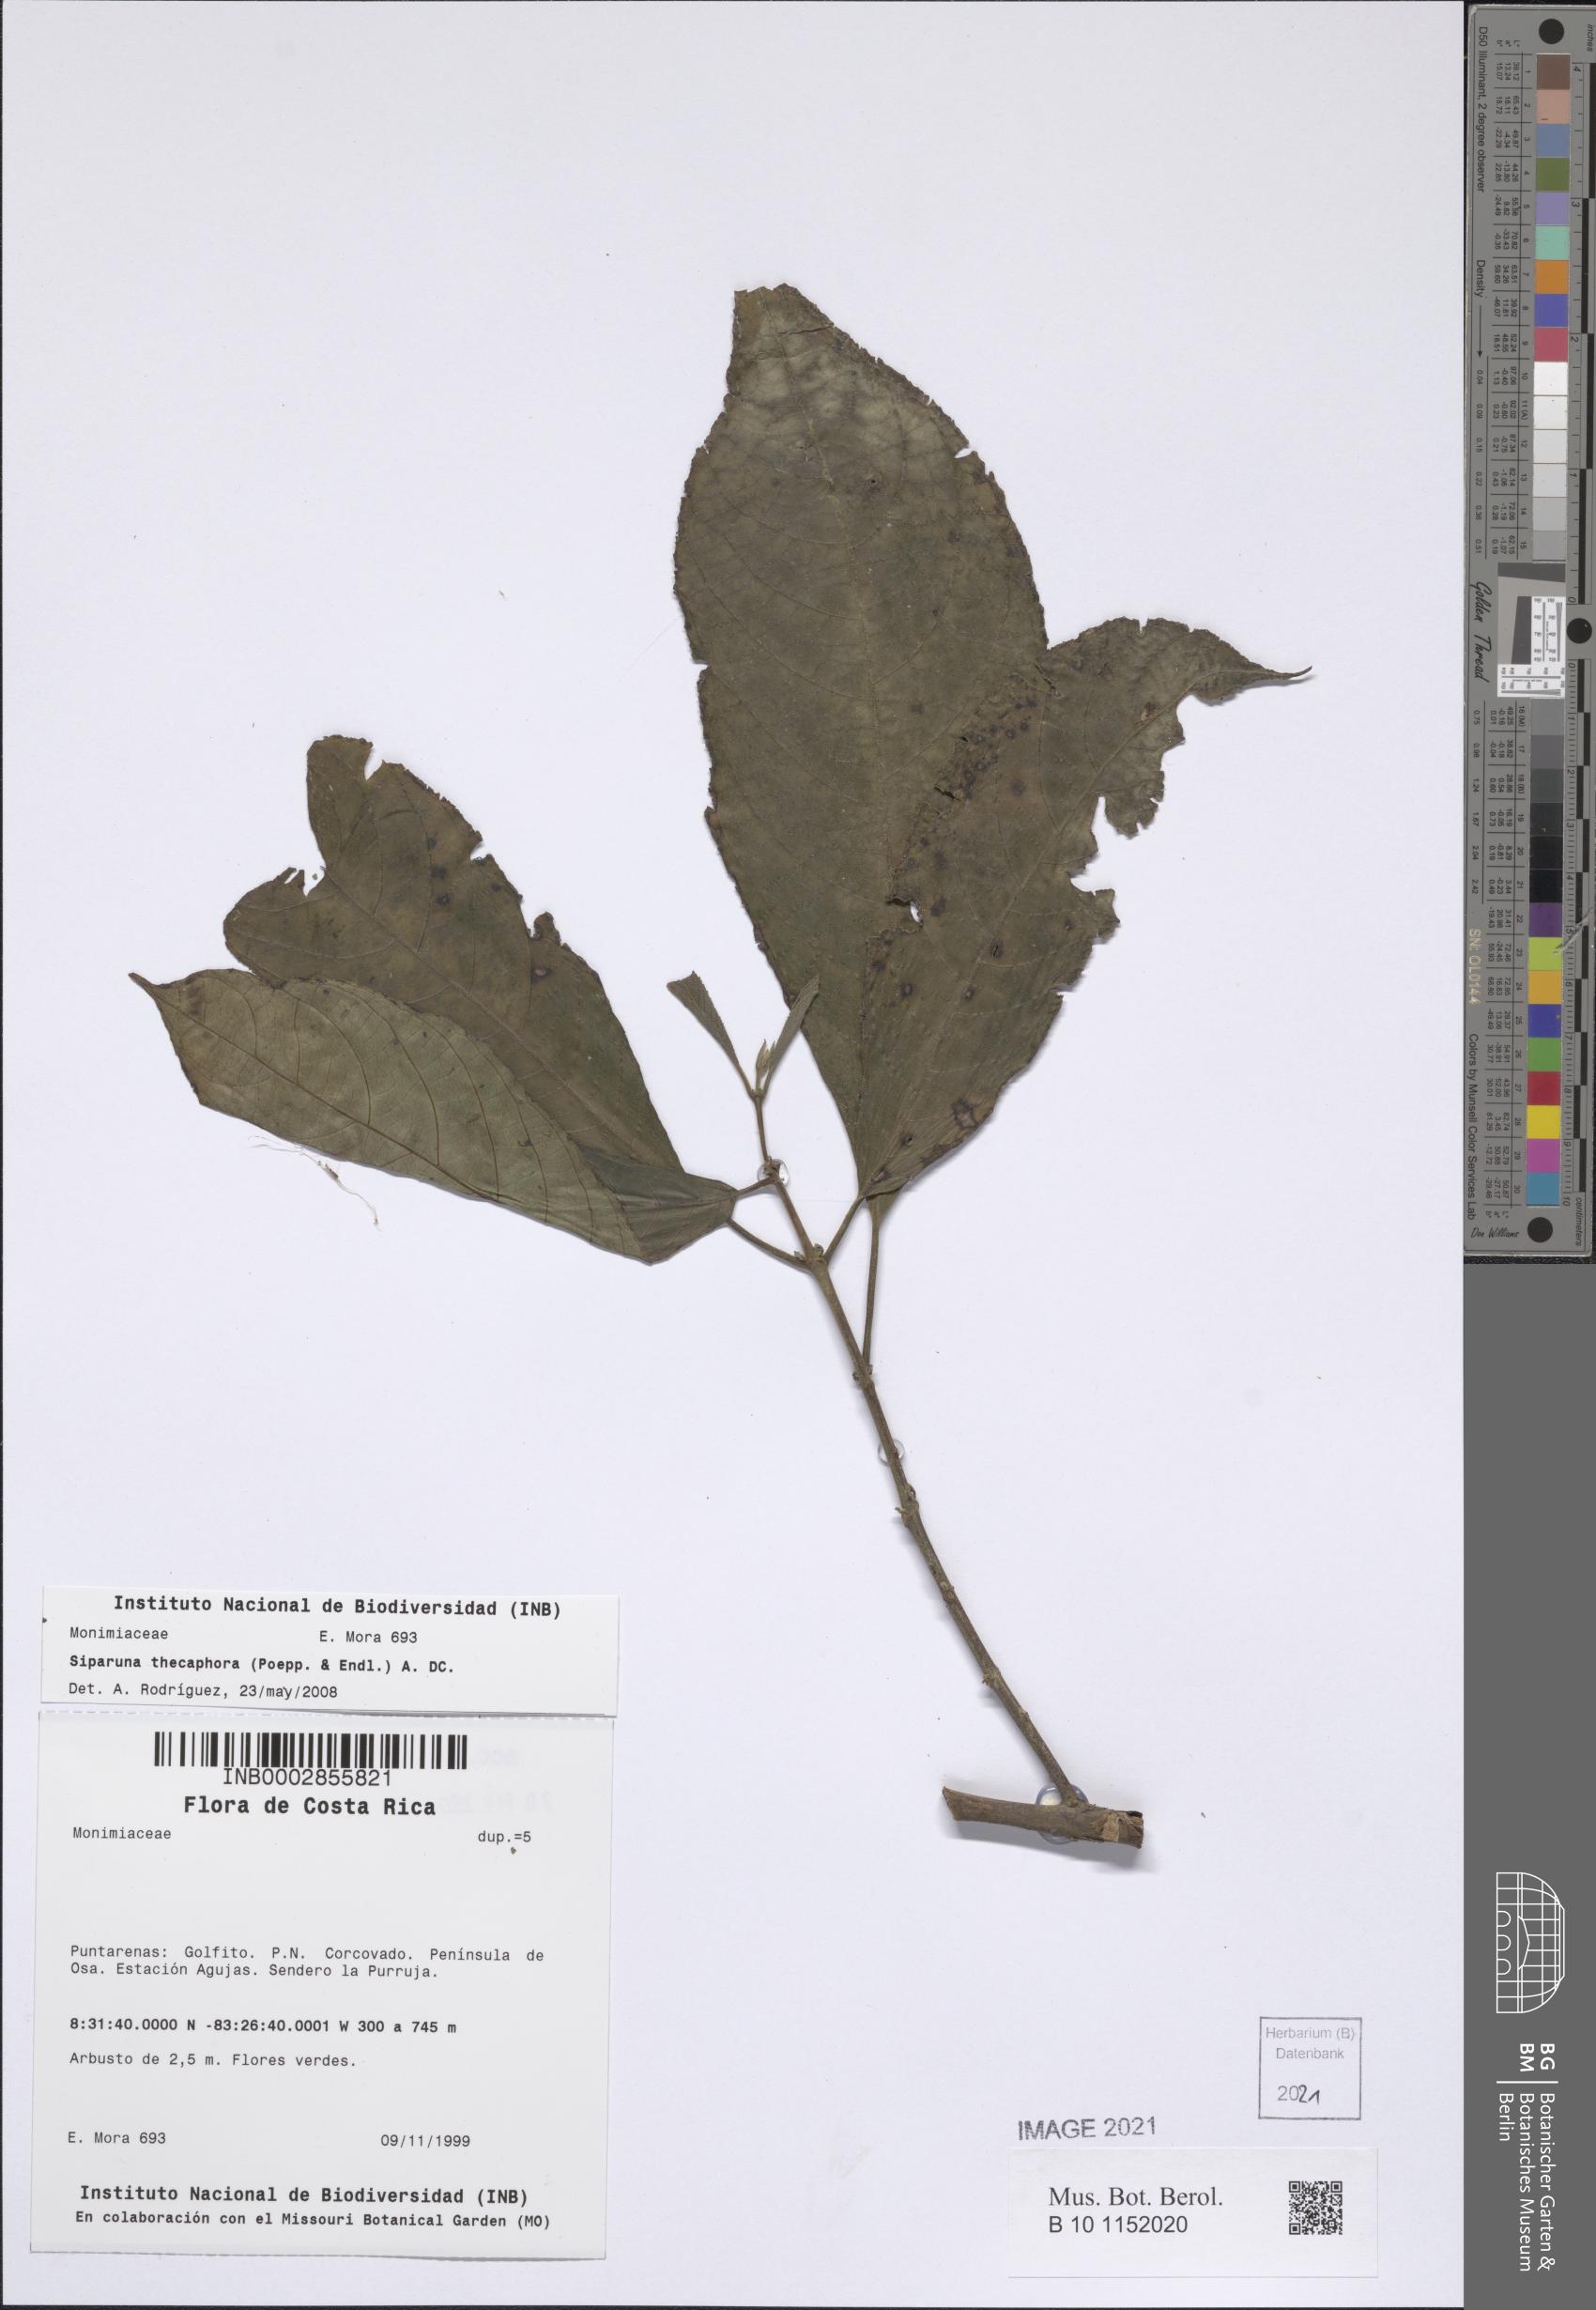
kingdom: Plantae
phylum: Tracheophyta
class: Magnoliopsida
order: Laurales
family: Siparunaceae
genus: Siparuna
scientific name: Siparuna thecaphora
